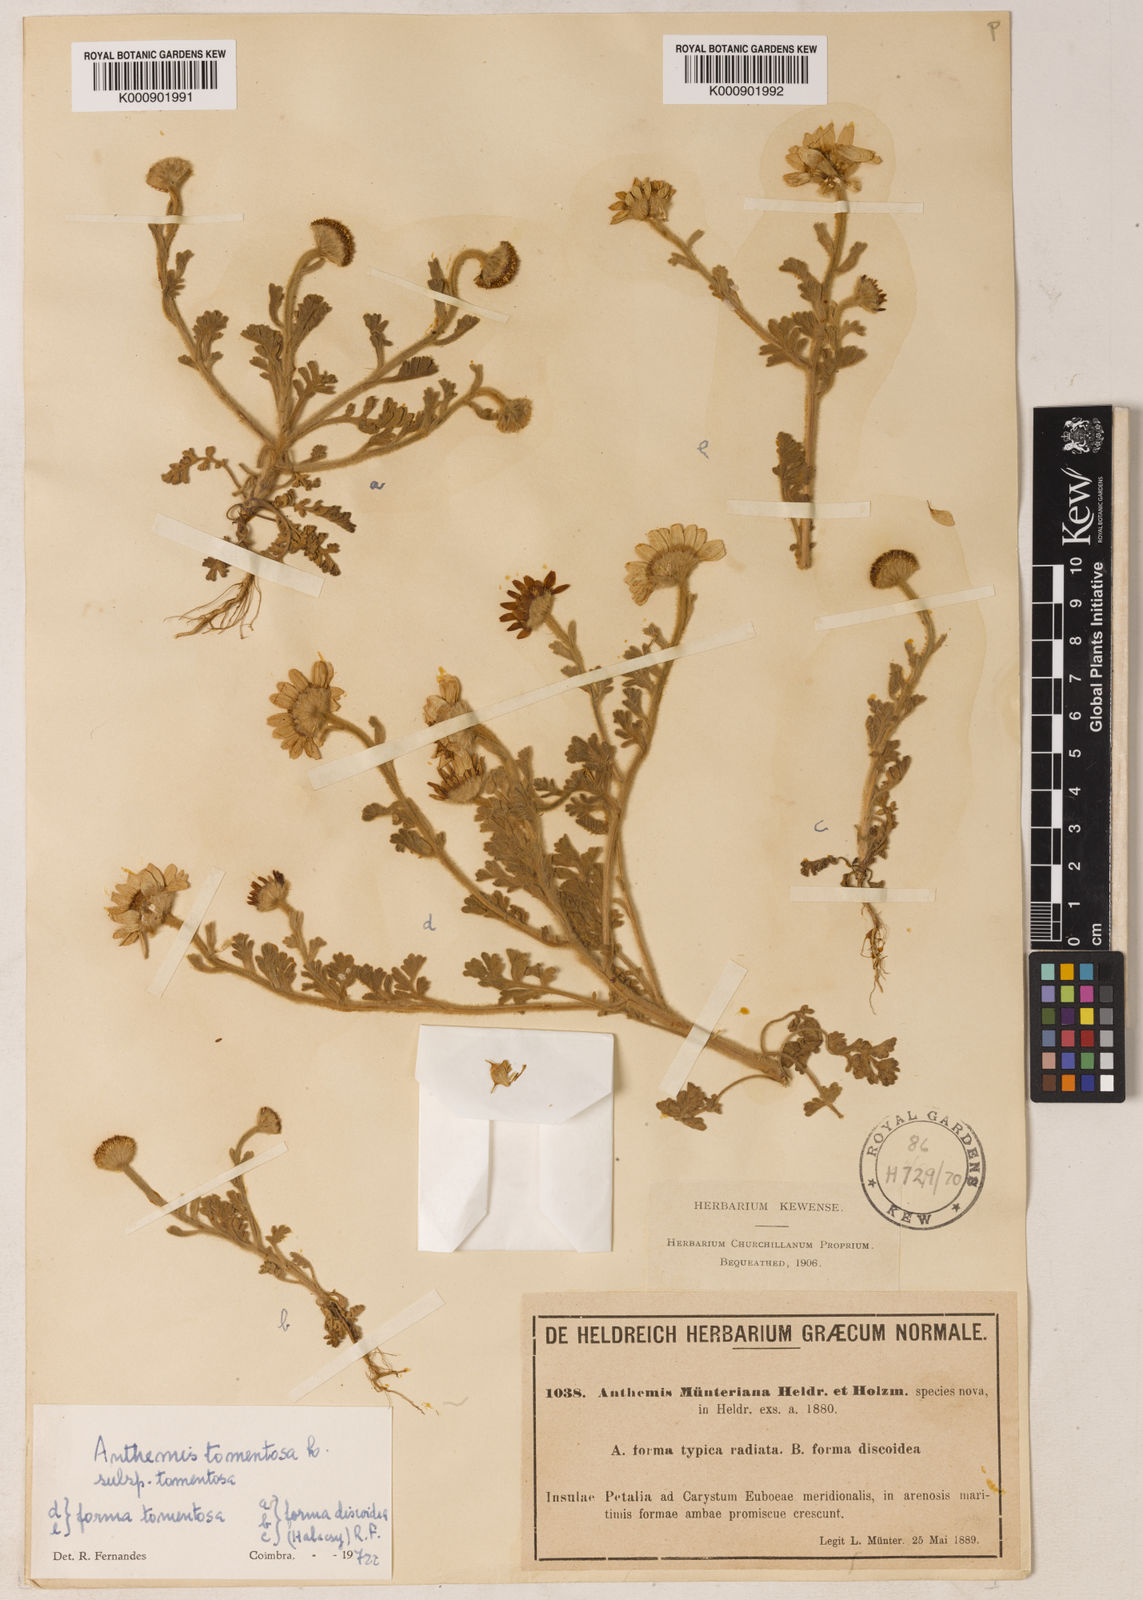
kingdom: Plantae
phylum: Tracheophyta
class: Magnoliopsida
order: Asterales
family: Asteraceae
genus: Anthemis
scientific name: Anthemis tomentosa
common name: Woolly chamomile
